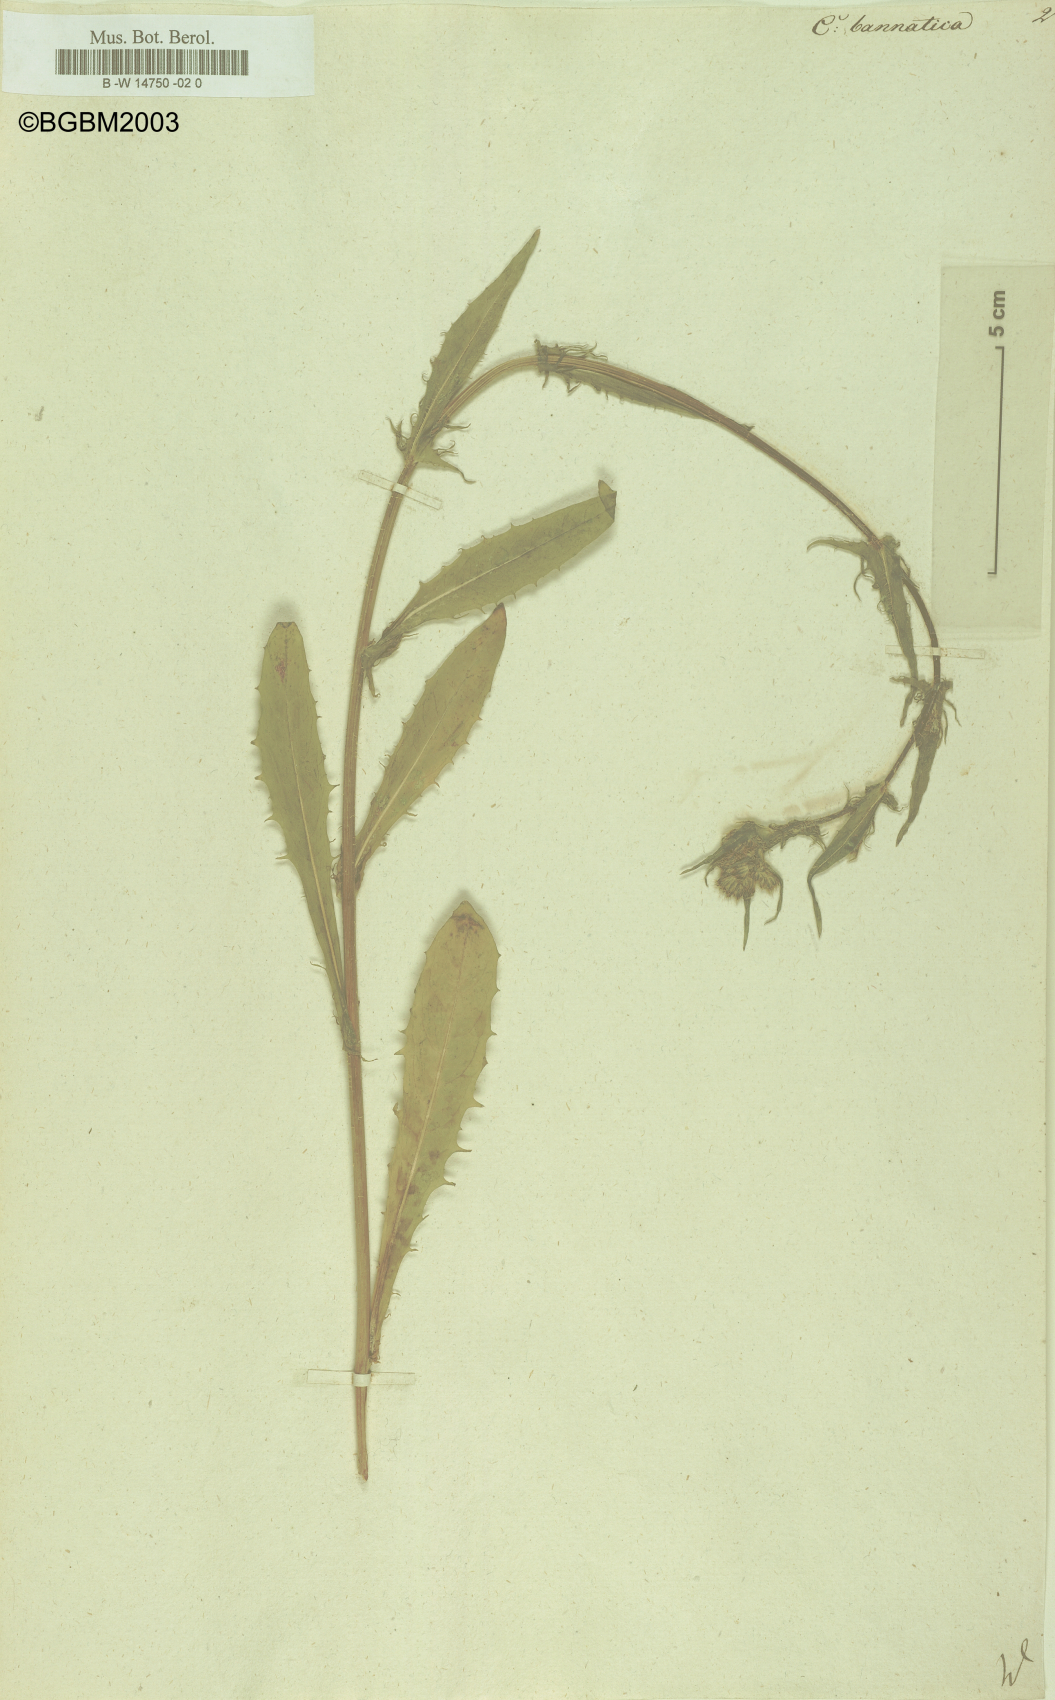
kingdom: Plantae
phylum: Tracheophyta
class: Magnoliopsida
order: Asterales
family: Asteraceae
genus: Crepis
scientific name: Crepis setosa
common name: Bristly hawk's-beard
